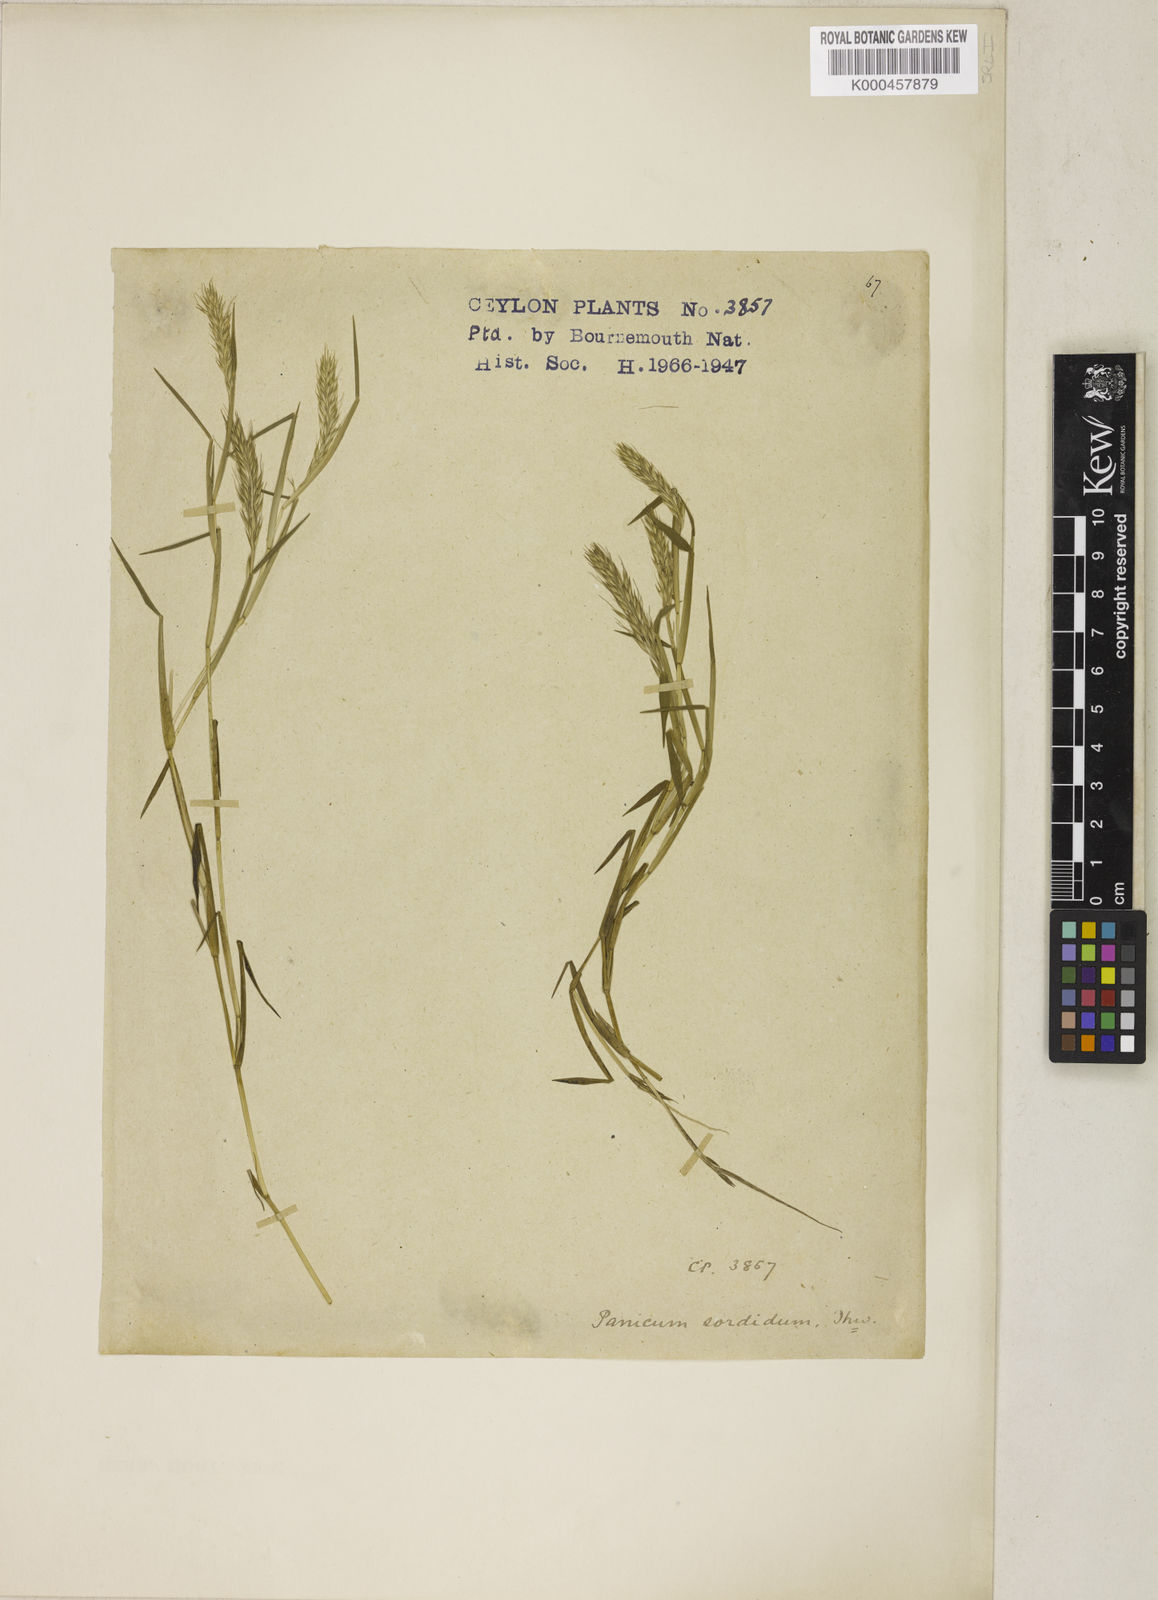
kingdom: Plantae
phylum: Tracheophyta
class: Liliopsida
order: Poales
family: Poaceae
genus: Pseudoraphis
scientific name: Pseudoraphis sordida
